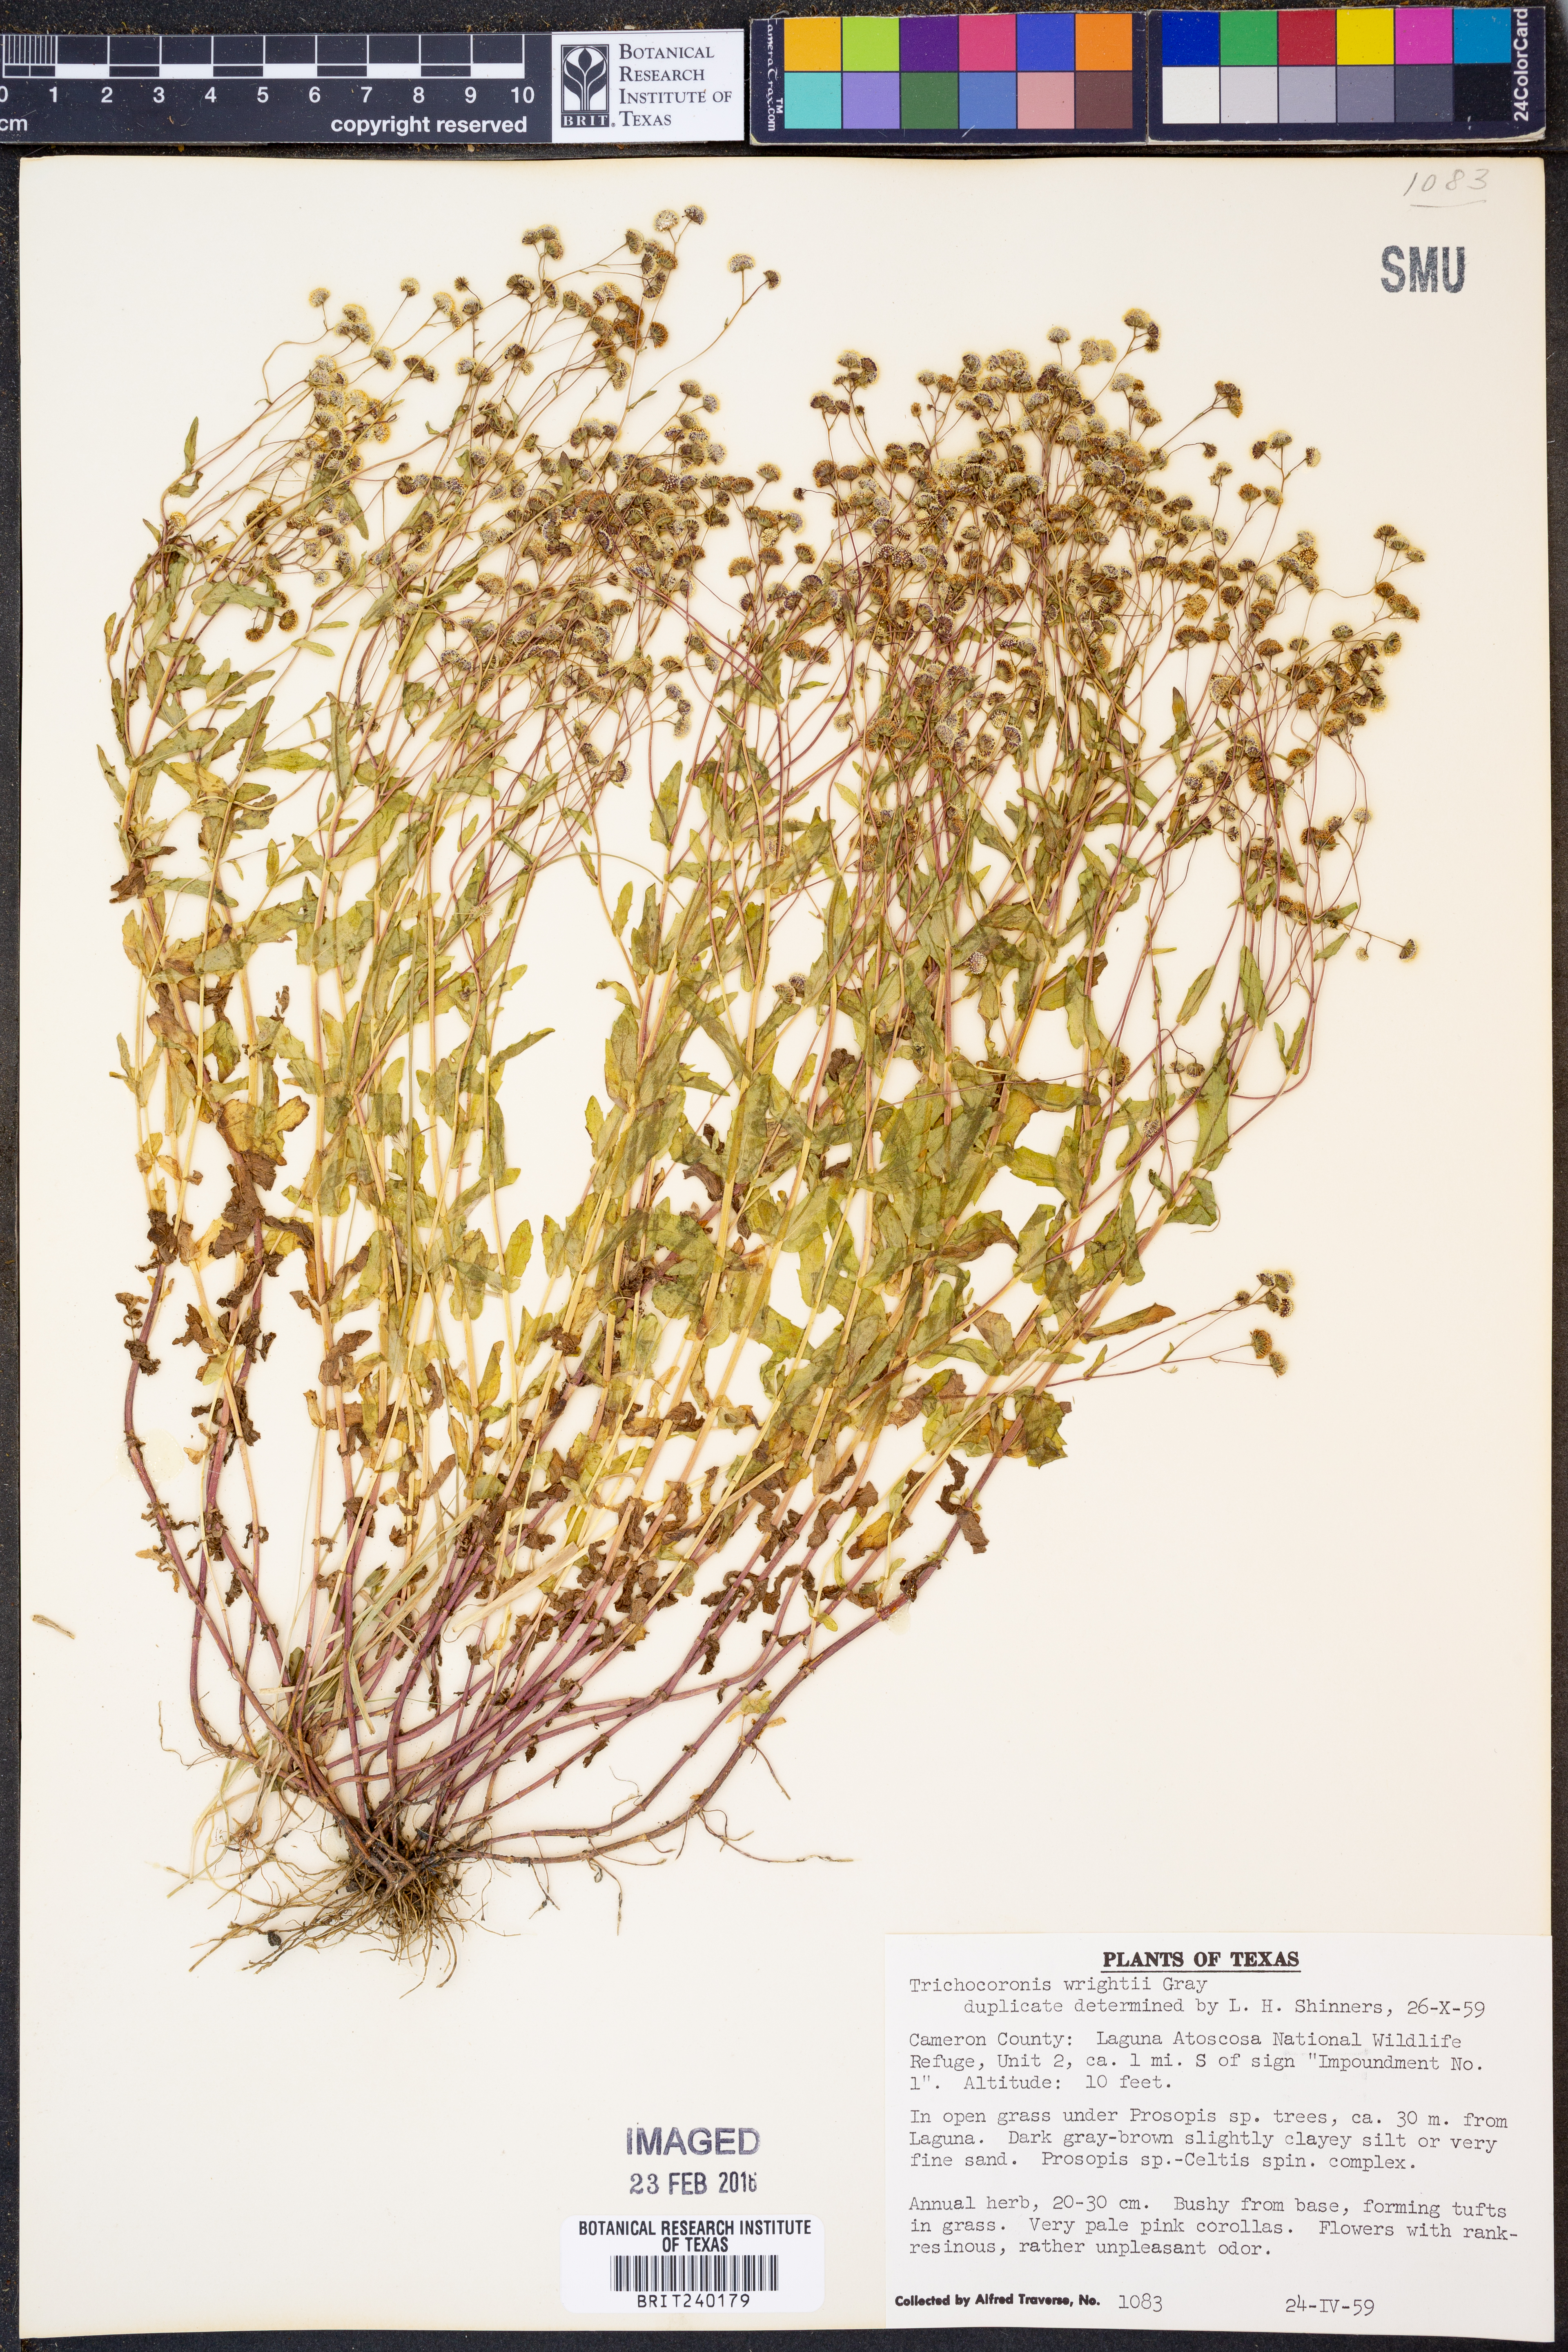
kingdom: Plantae
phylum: Tracheophyta
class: Magnoliopsida
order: Asterales
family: Asteraceae
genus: Trichocoronis
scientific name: Trichocoronis wrightii
